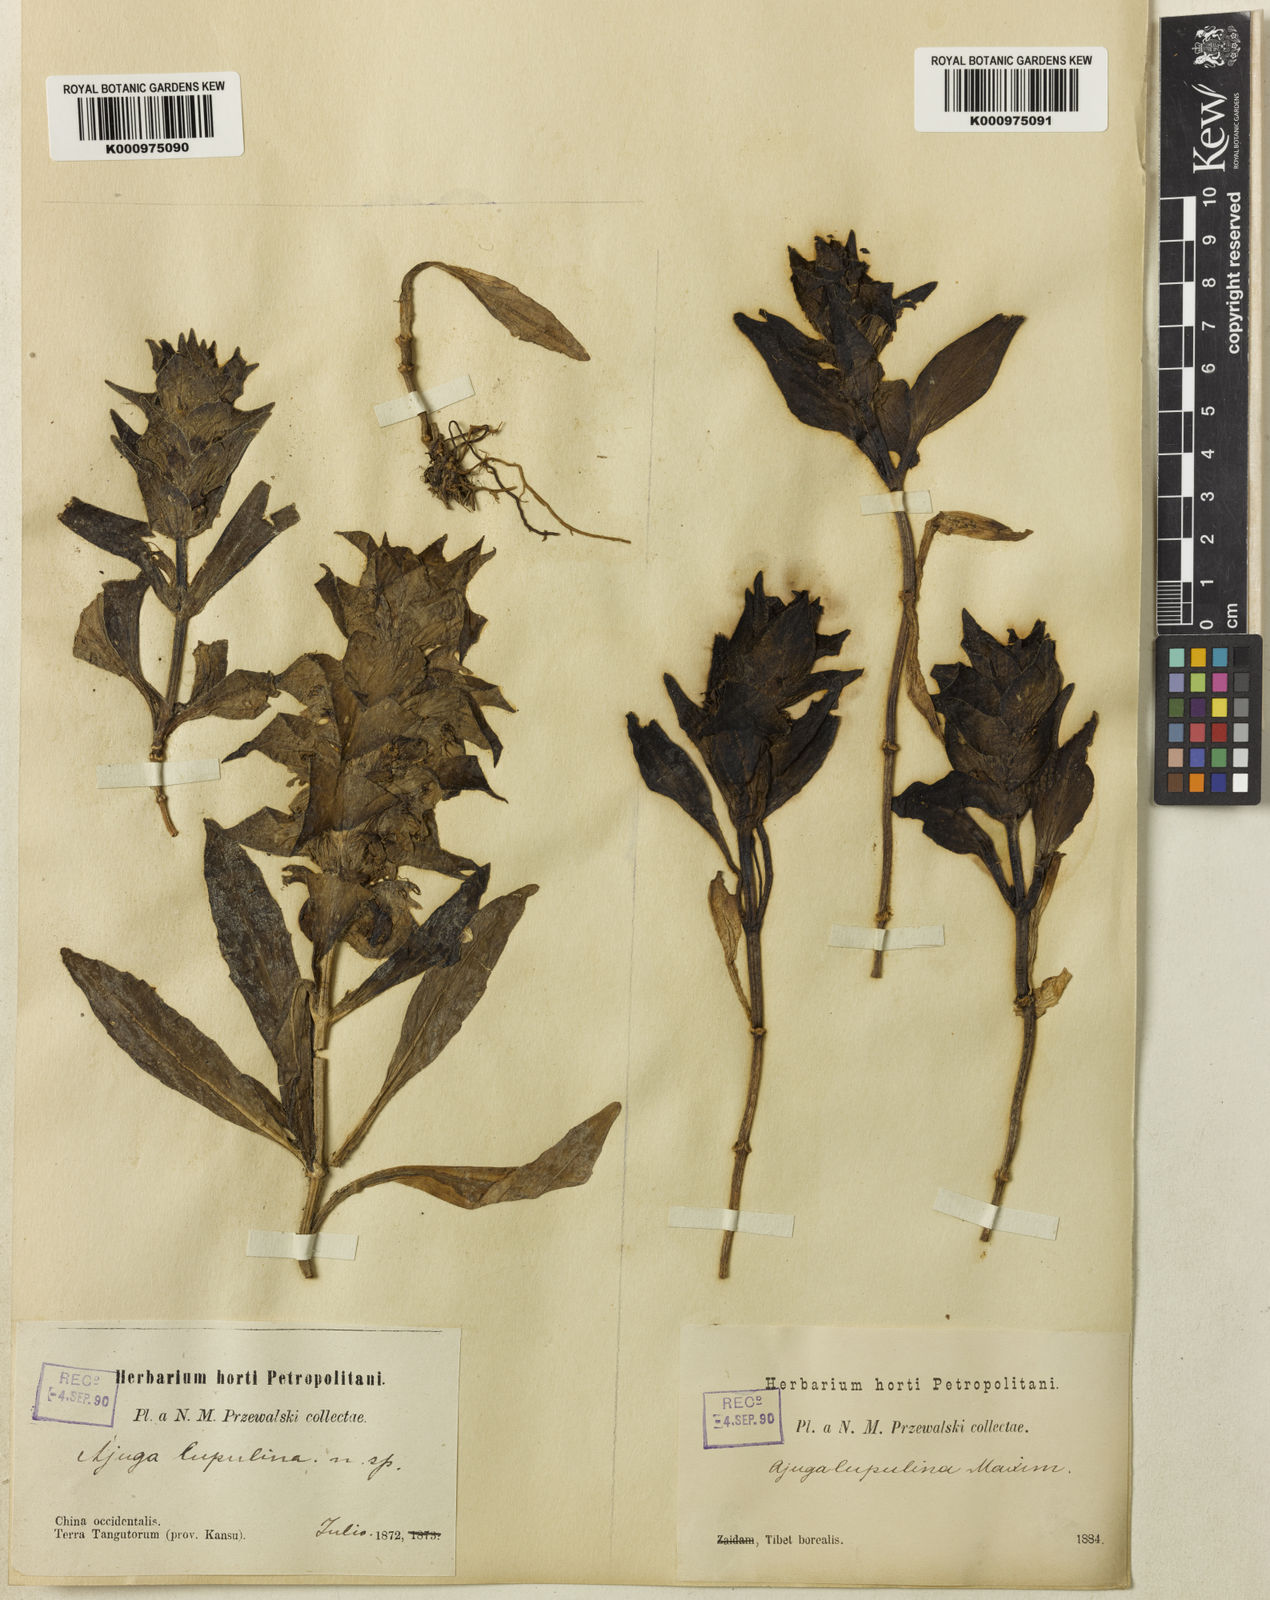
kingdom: Plantae
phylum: Tracheophyta
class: Magnoliopsida
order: Lamiales
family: Lamiaceae
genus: Ajuga
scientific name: Ajuga lupulina
